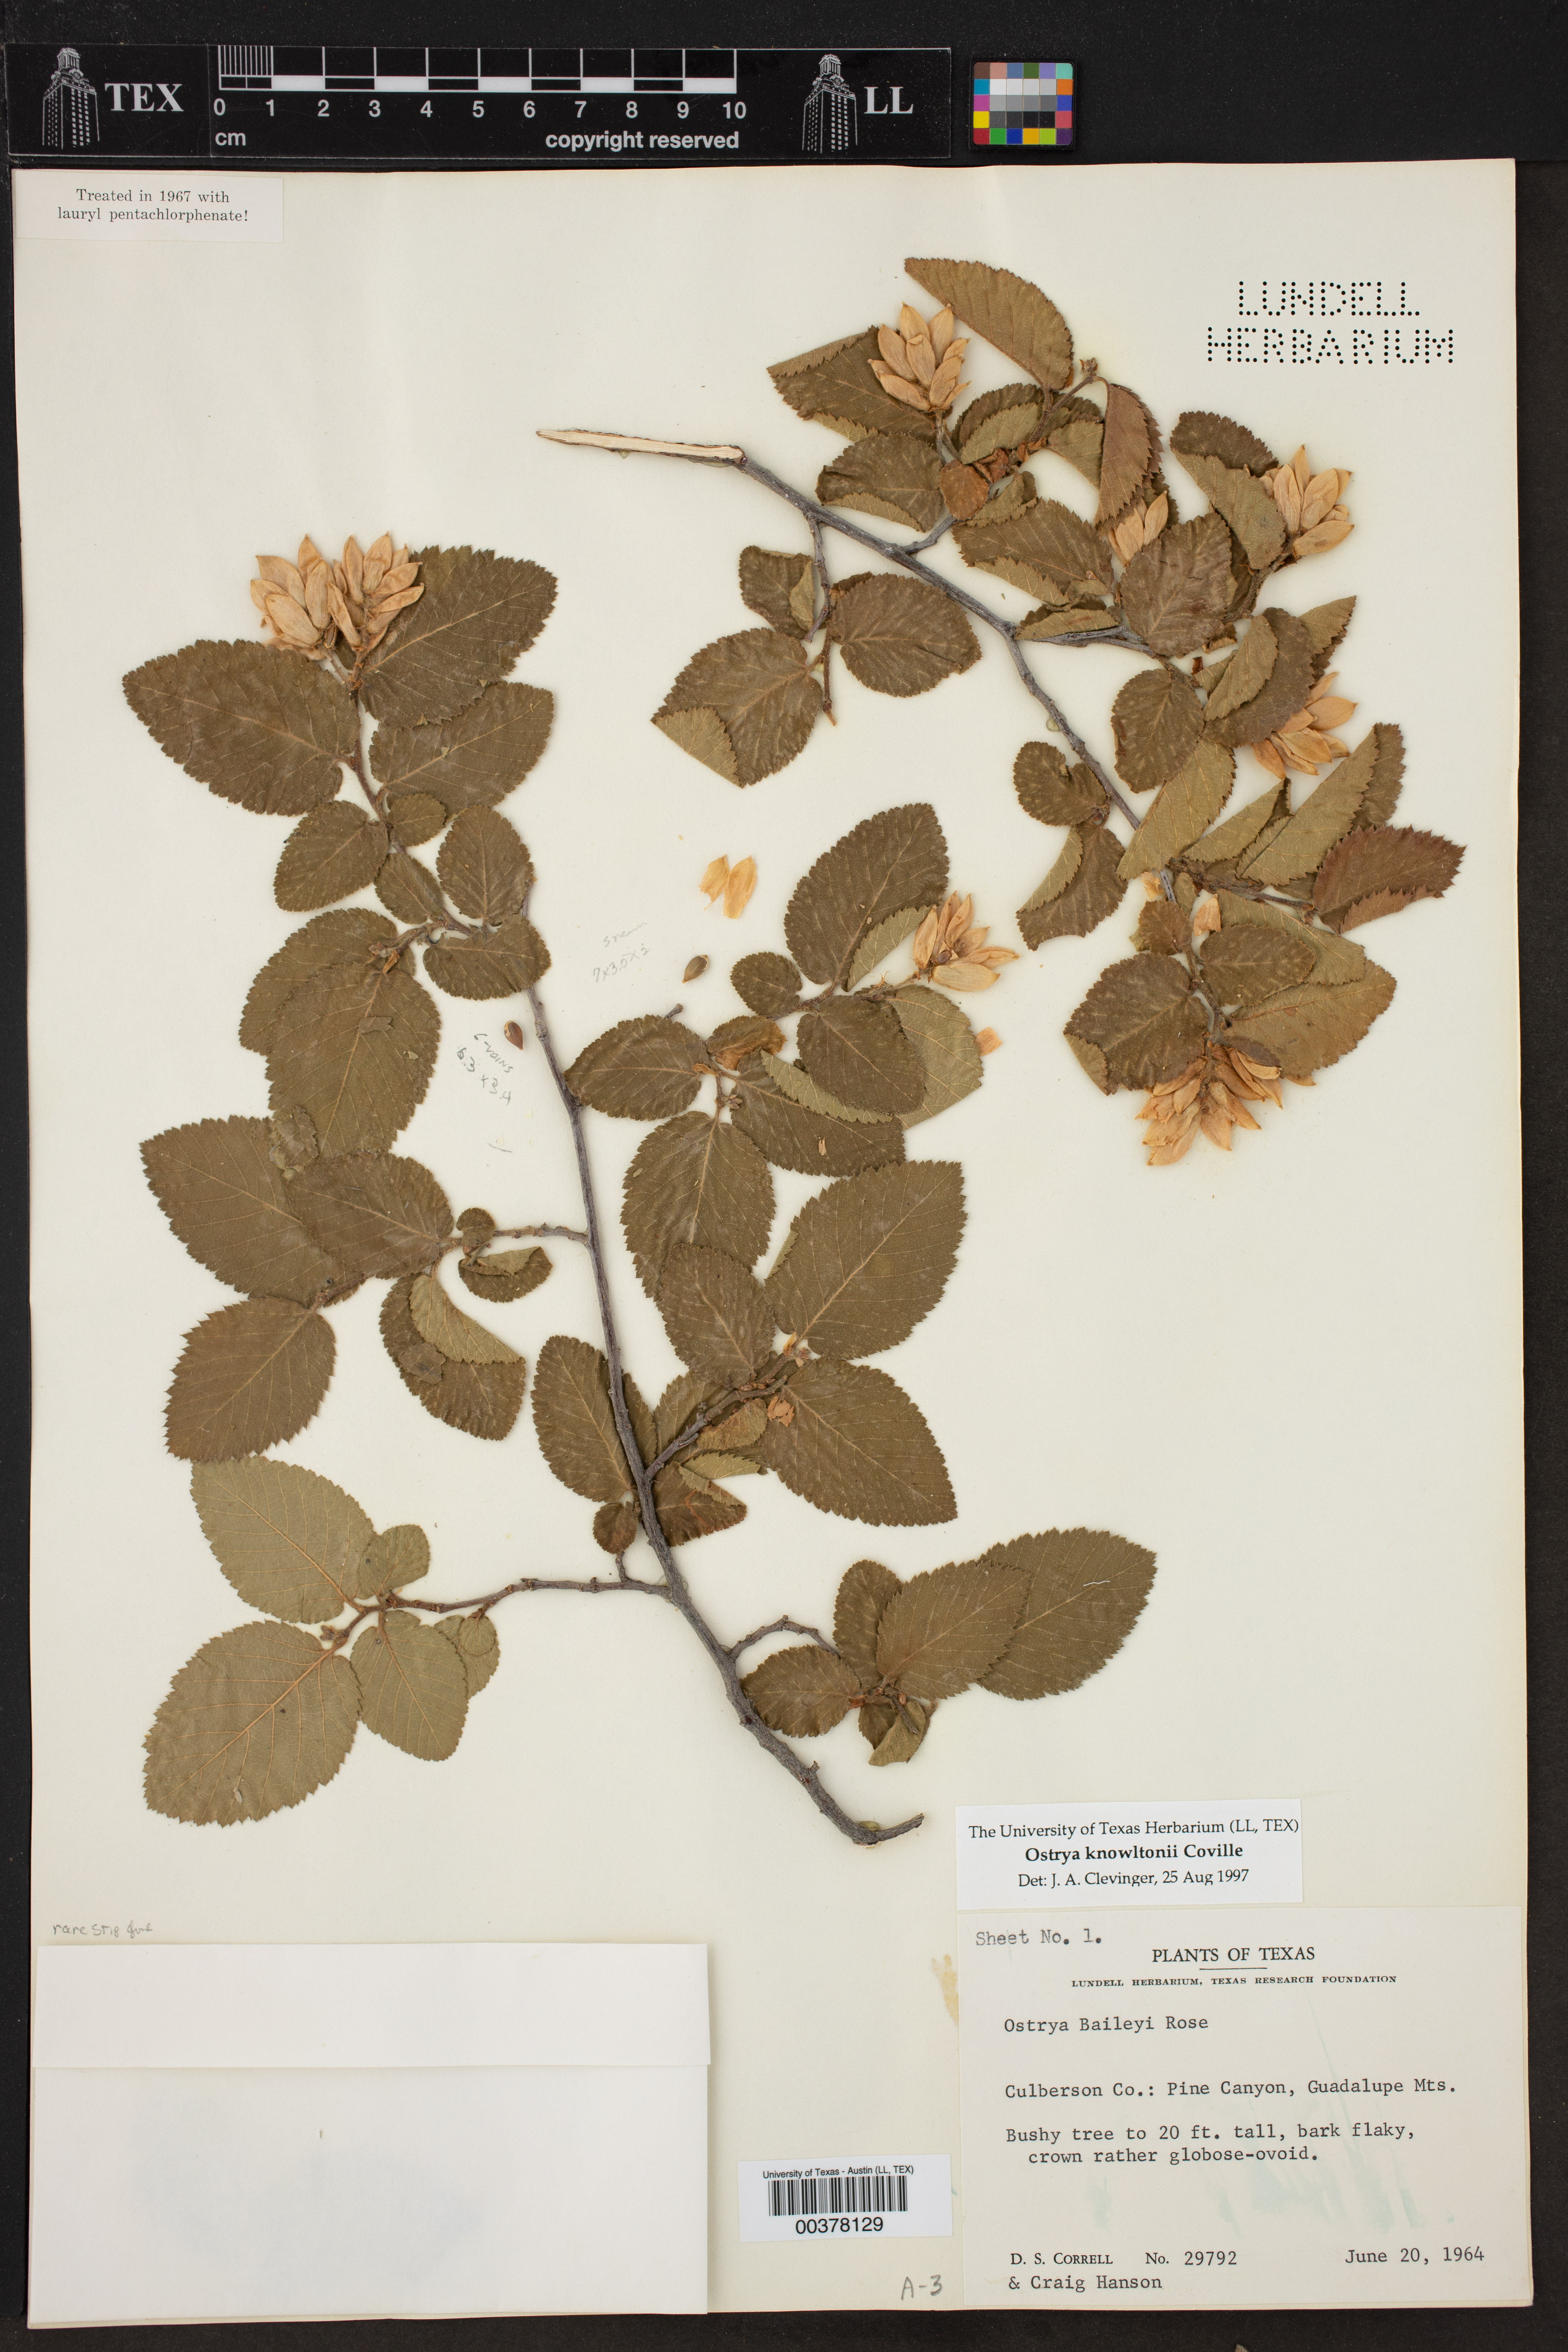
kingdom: Plantae
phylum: Tracheophyta
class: Magnoliopsida
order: Fagales
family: Betulaceae
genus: Ostrya
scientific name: Ostrya knowltonii
